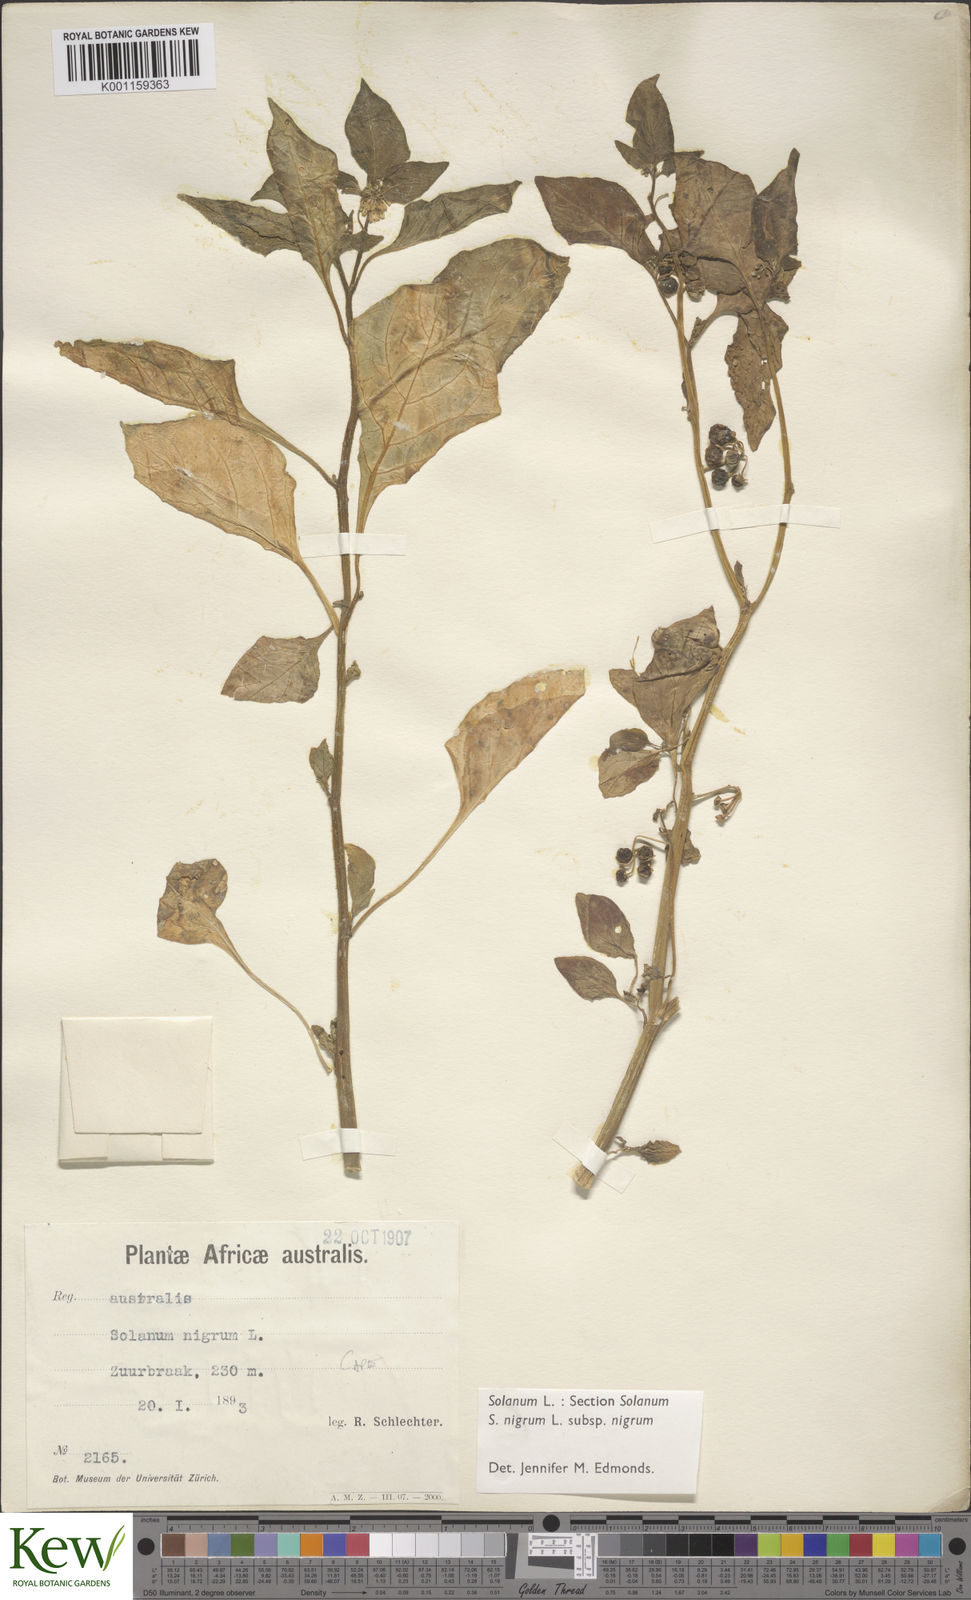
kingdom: Plantae
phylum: Tracheophyta
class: Magnoliopsida
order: Solanales
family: Solanaceae
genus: Solanum
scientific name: Solanum scabrum
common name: Garden-huckleberry
